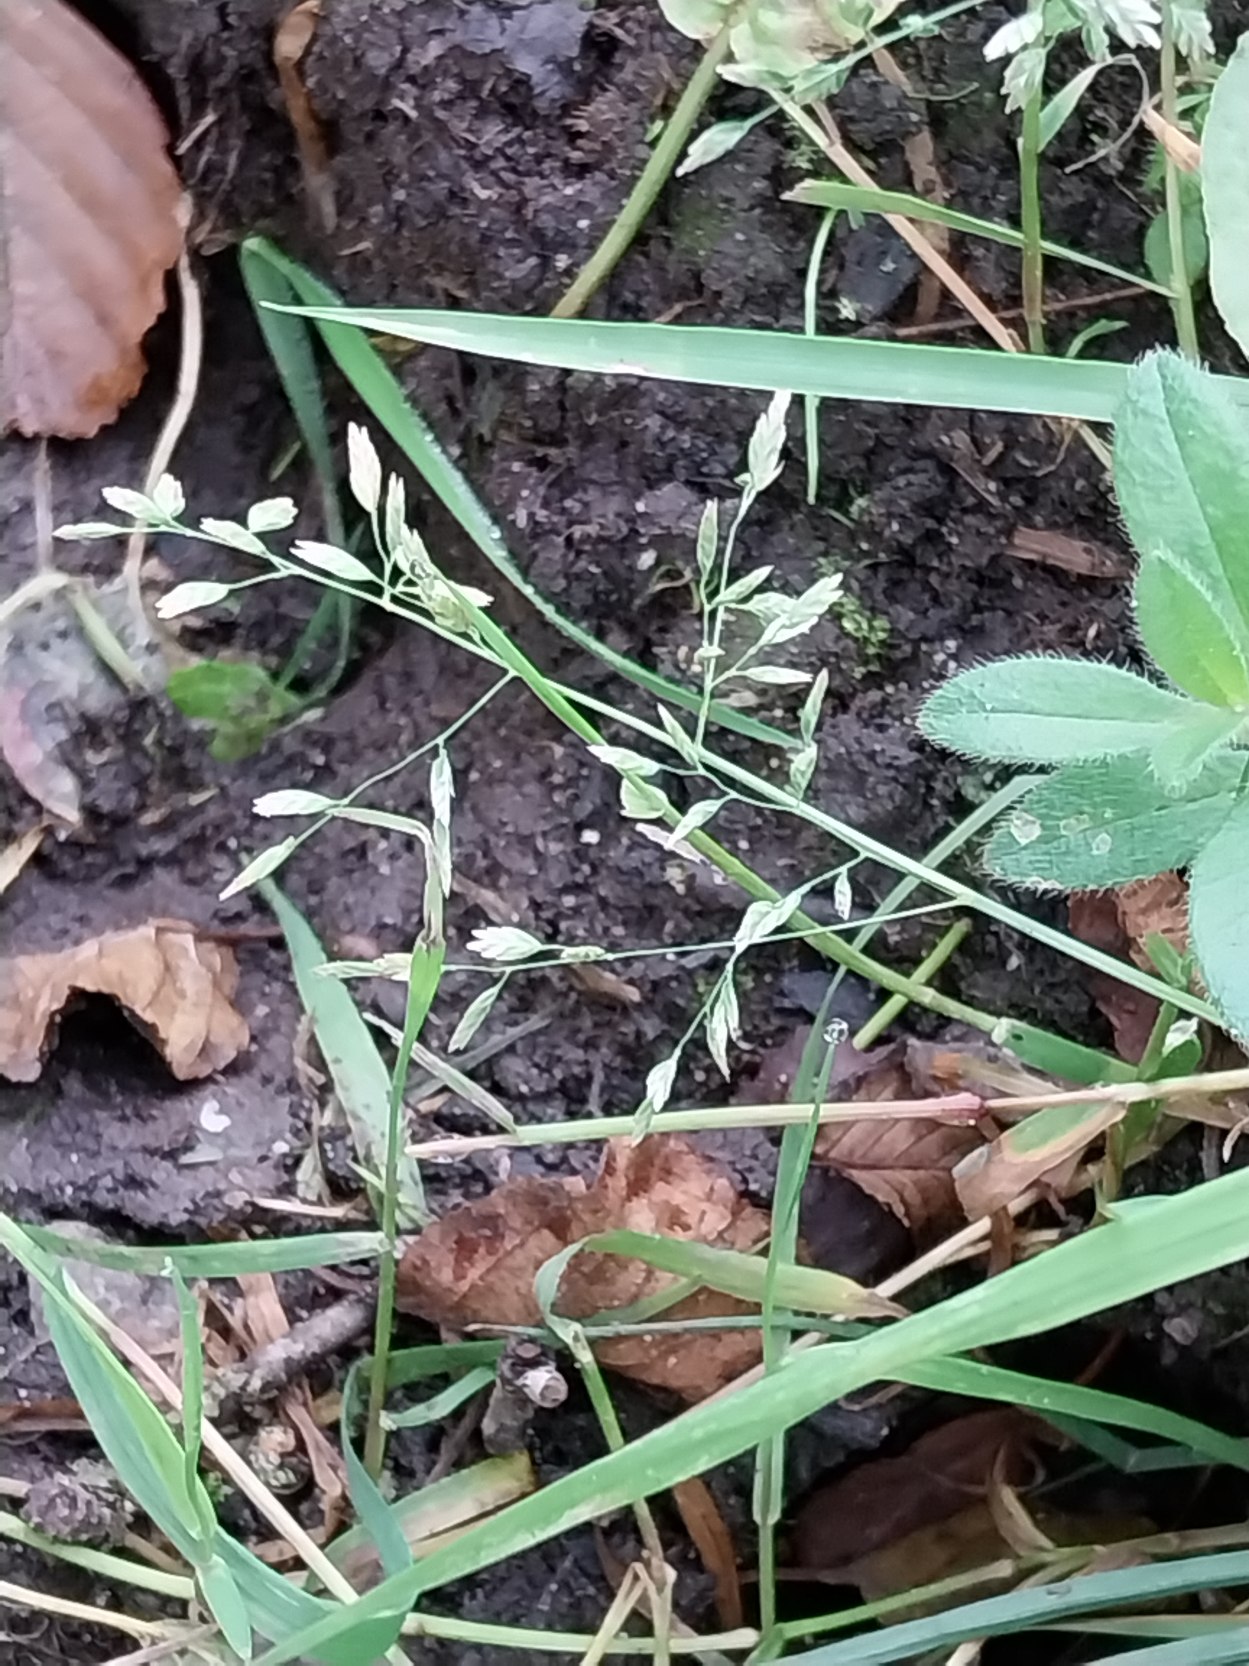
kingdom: Plantae
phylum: Tracheophyta
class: Liliopsida
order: Poales
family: Poaceae
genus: Poa
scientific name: Poa annua
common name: Enårig rapgræs
